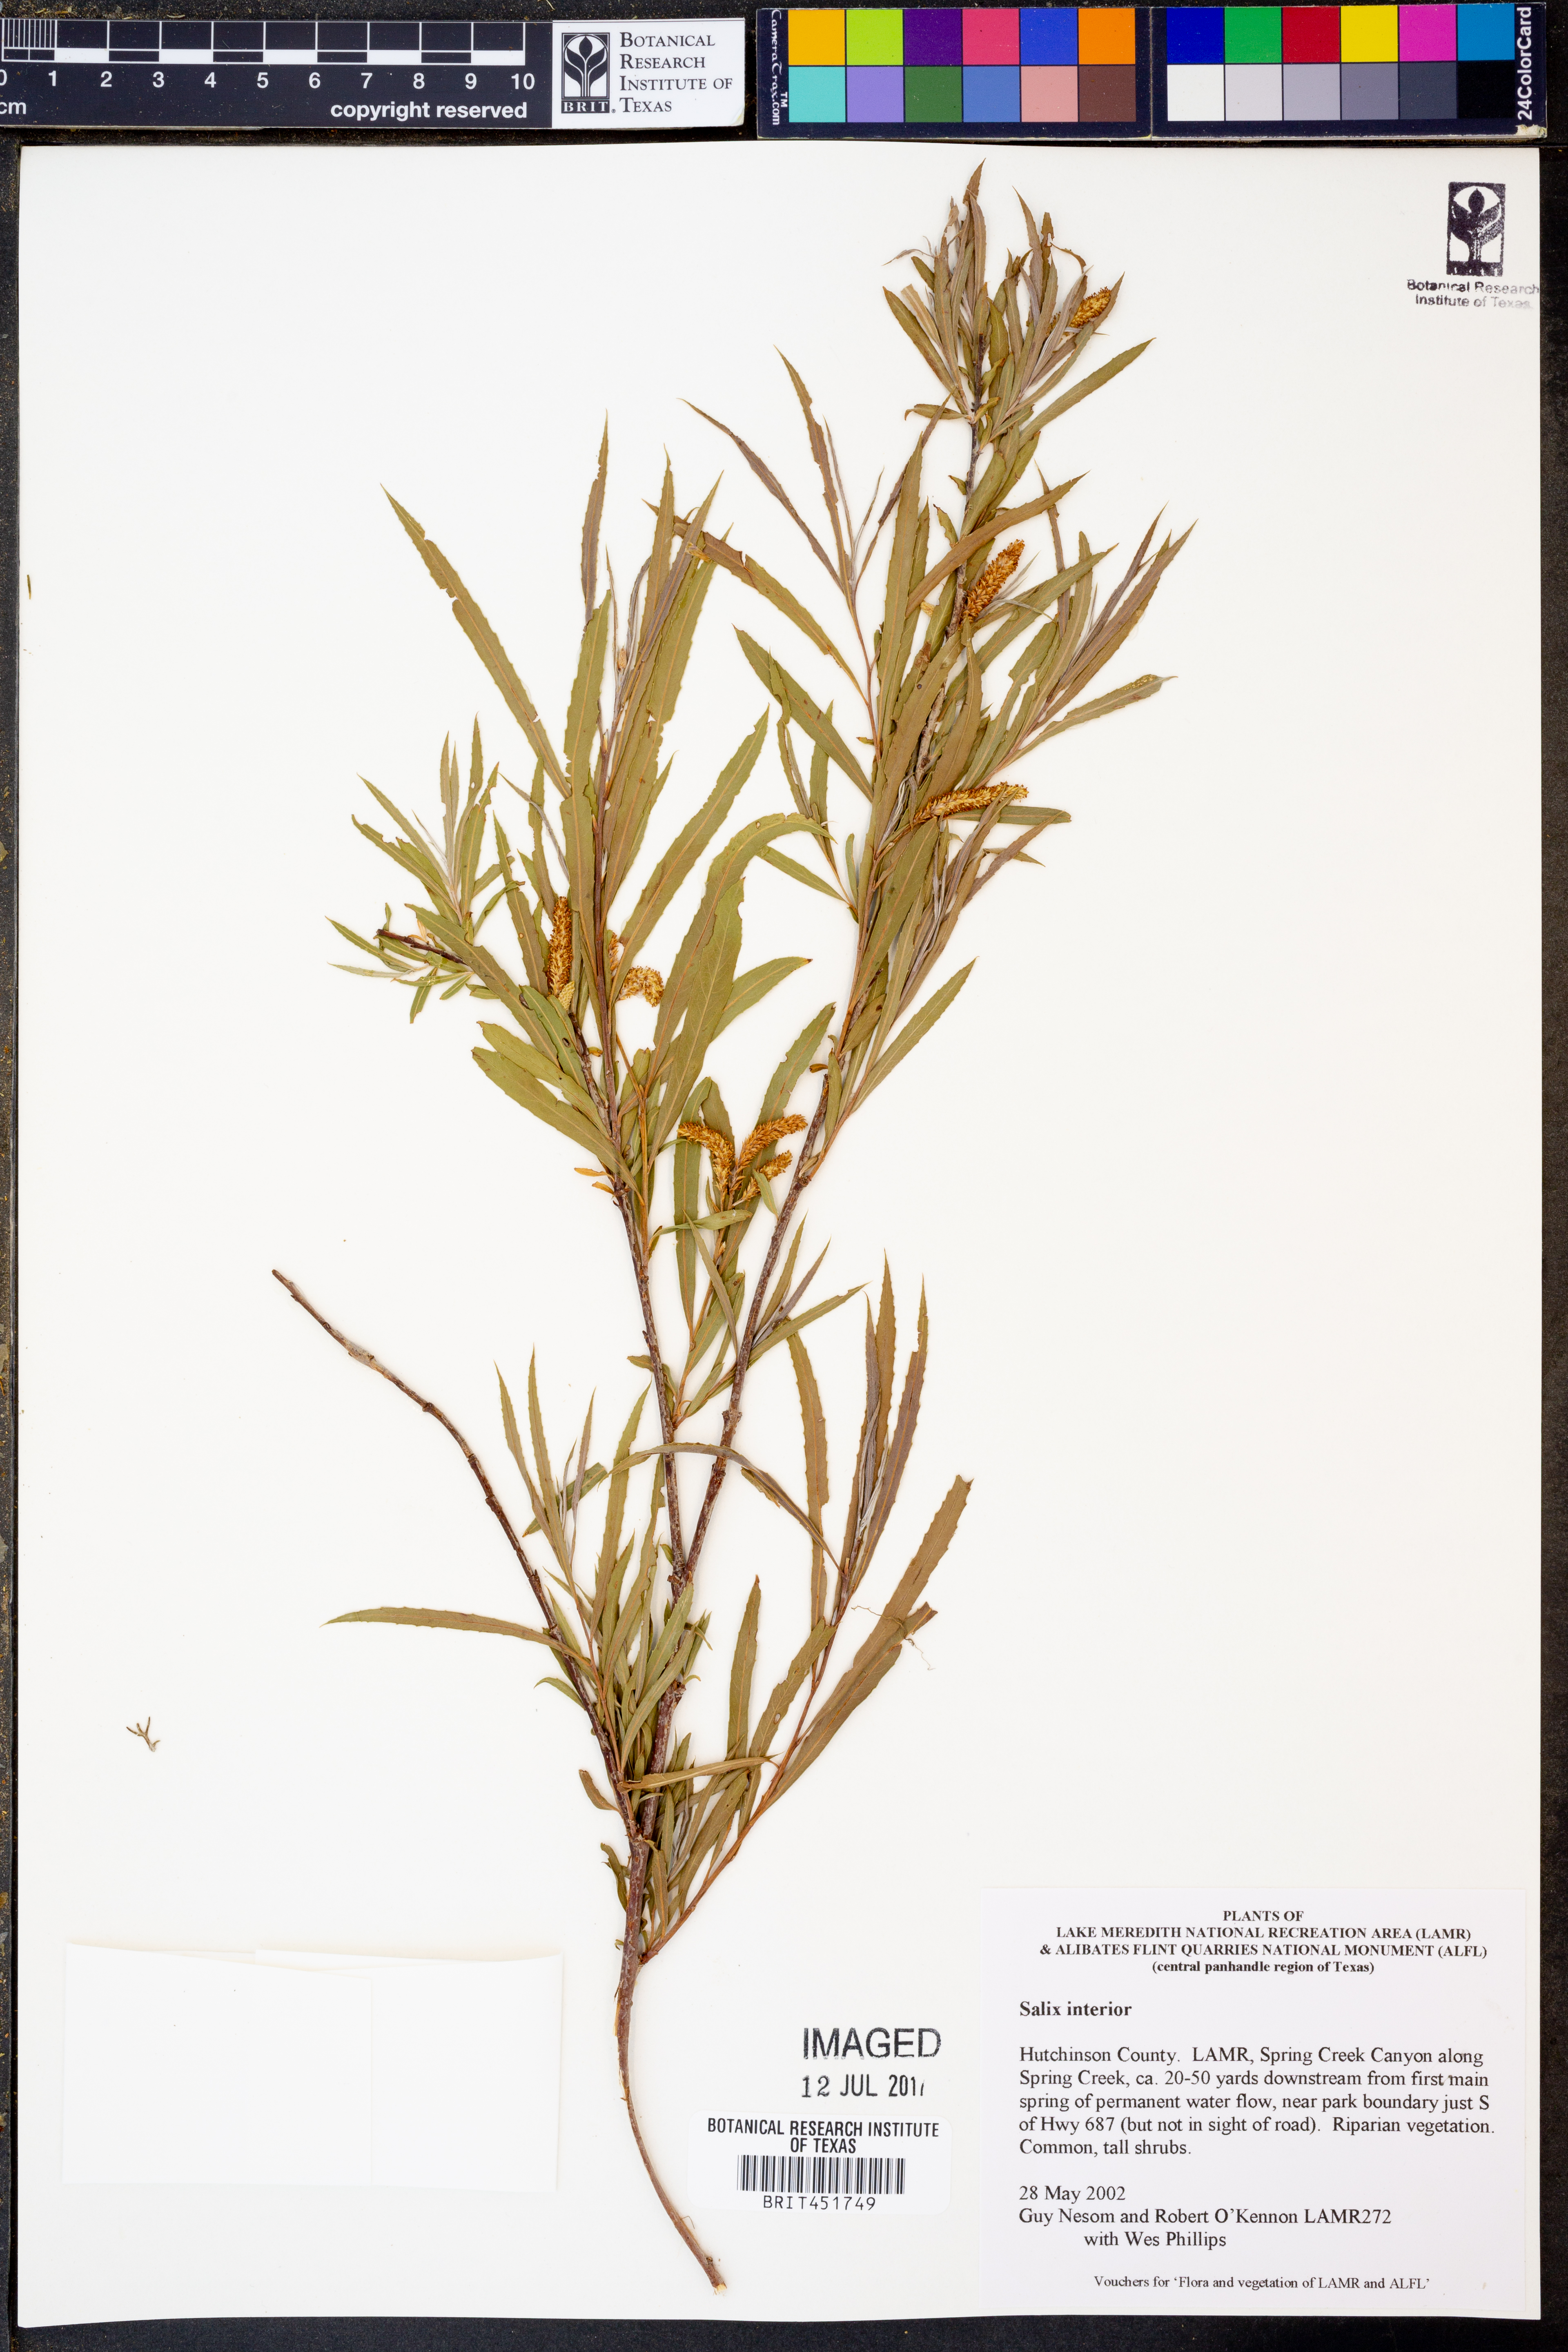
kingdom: Plantae
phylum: Tracheophyta
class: Magnoliopsida
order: Malpighiales
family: Salicaceae
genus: Salix
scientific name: Salix interior
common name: Sandbar willow
